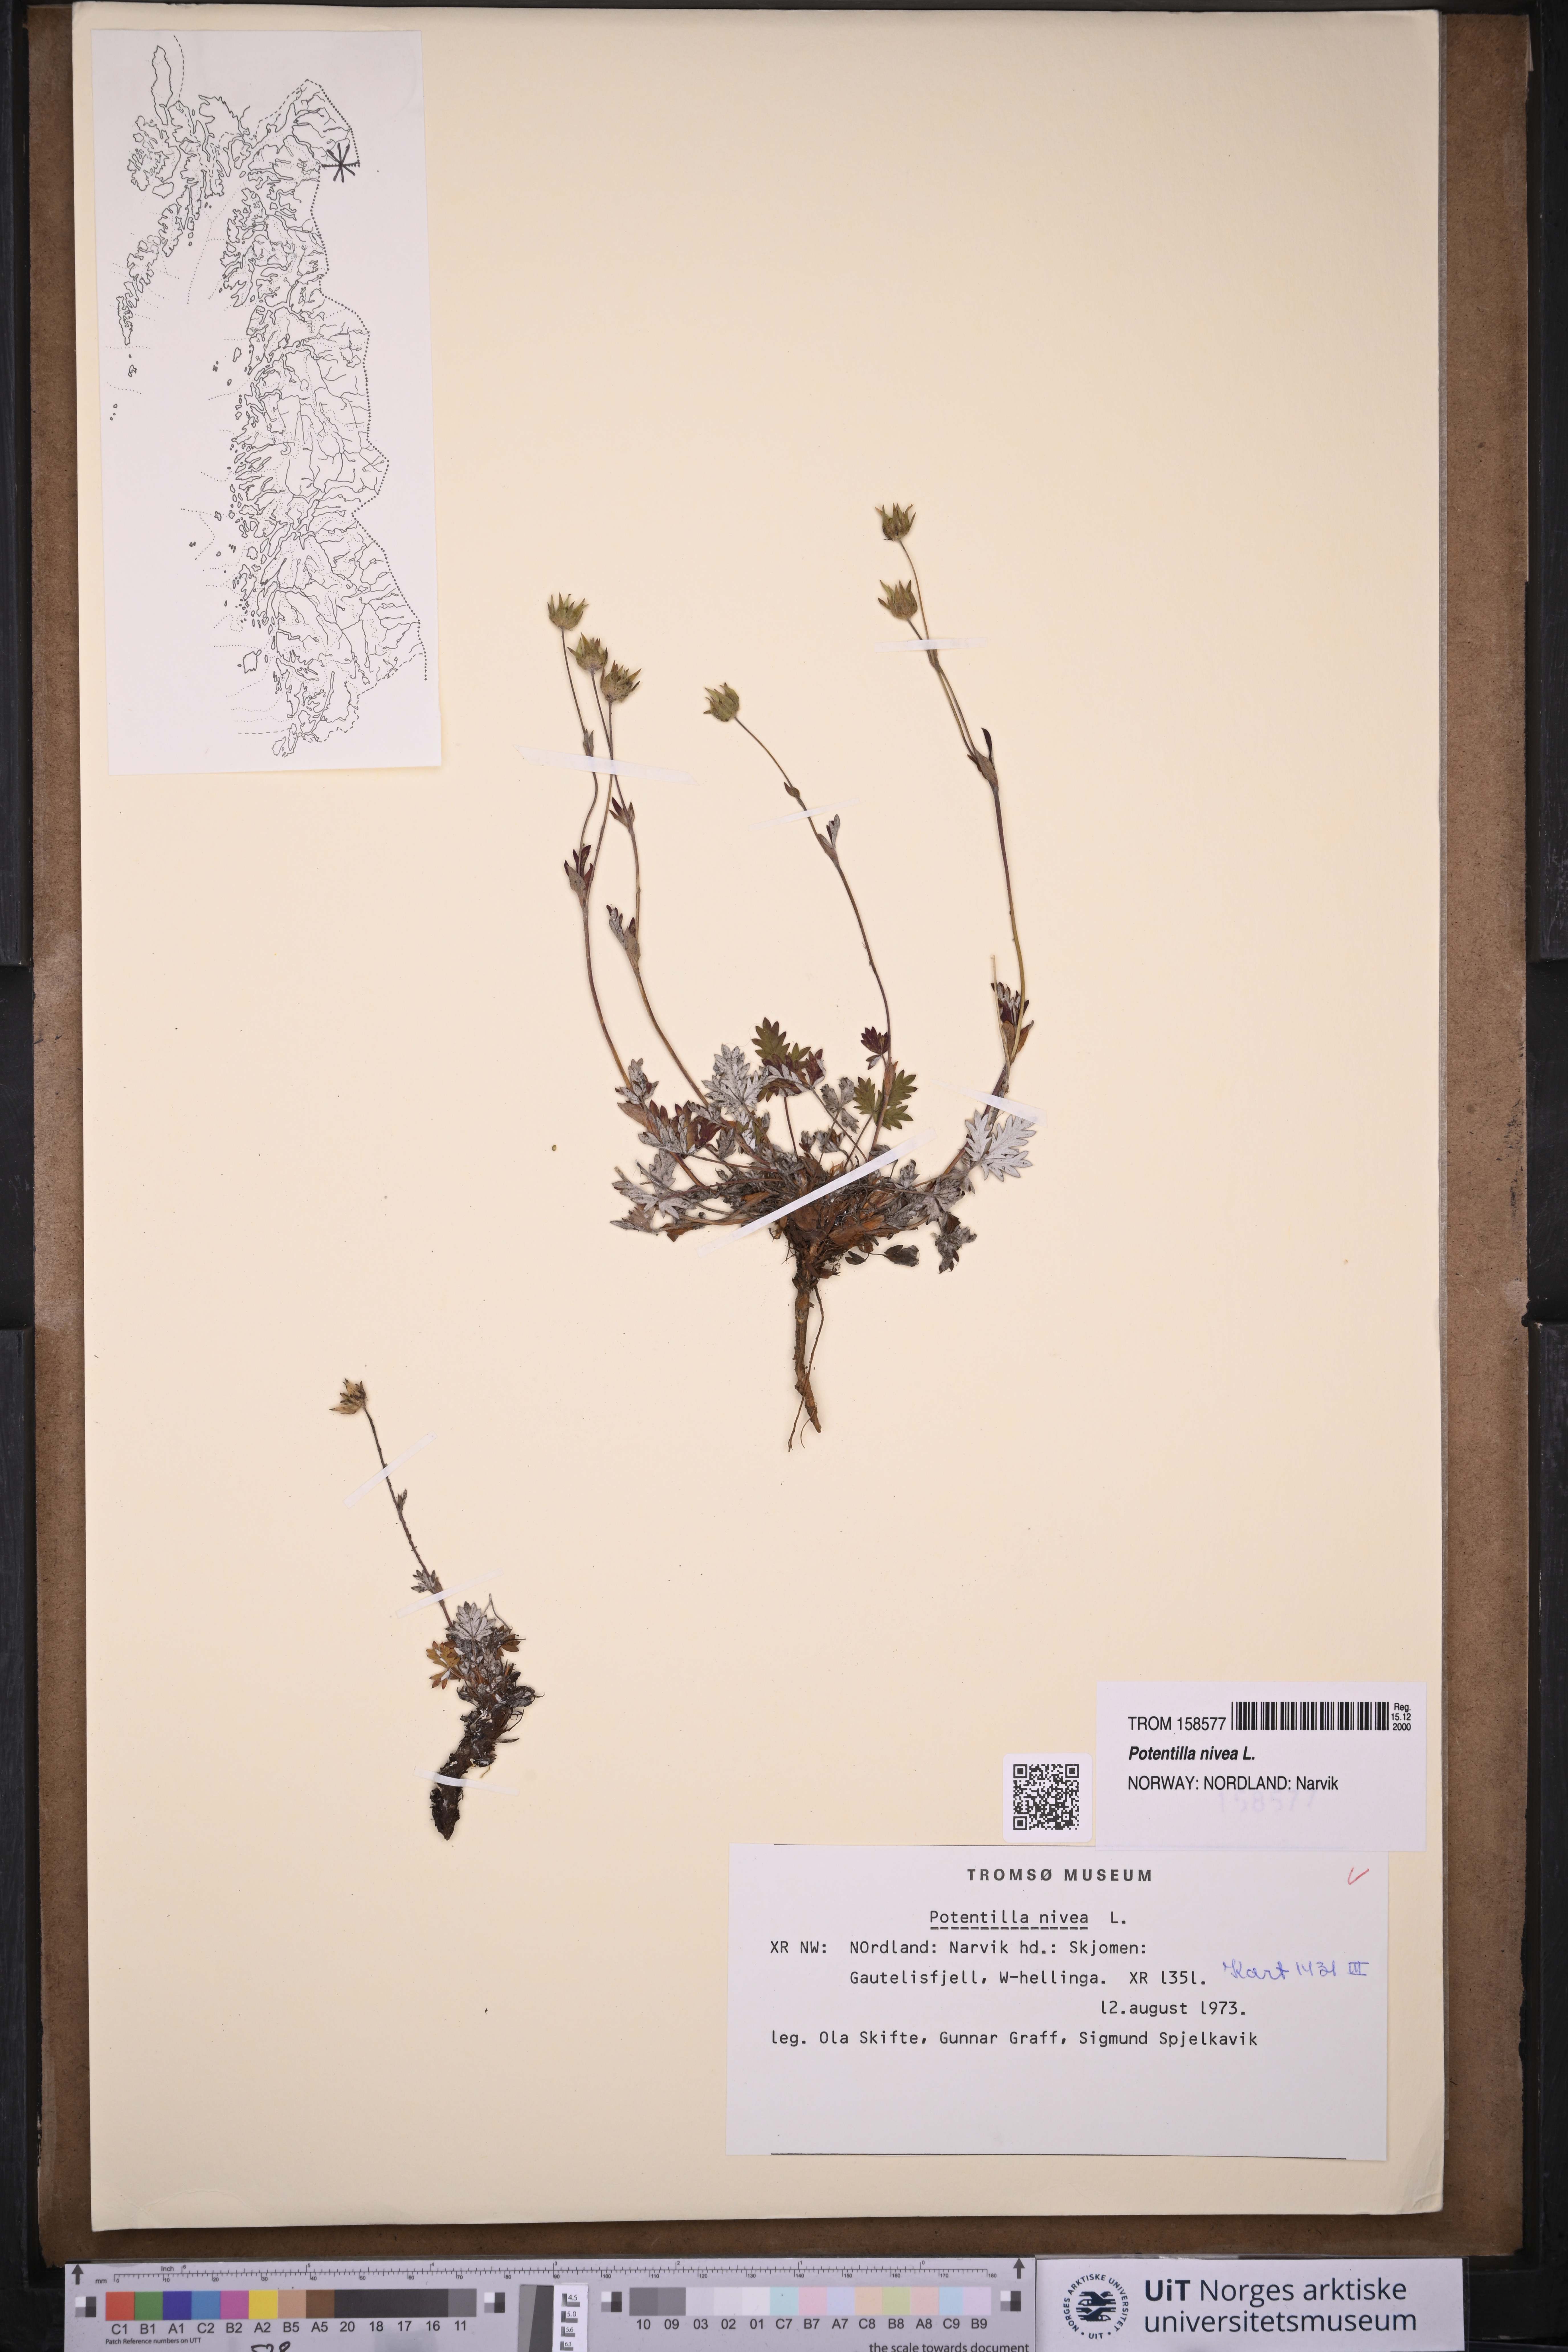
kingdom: Plantae
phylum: Tracheophyta
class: Magnoliopsida
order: Rosales
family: Rosaceae
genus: Potentilla
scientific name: Potentilla arenosa
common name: Bluff cinquefoil
